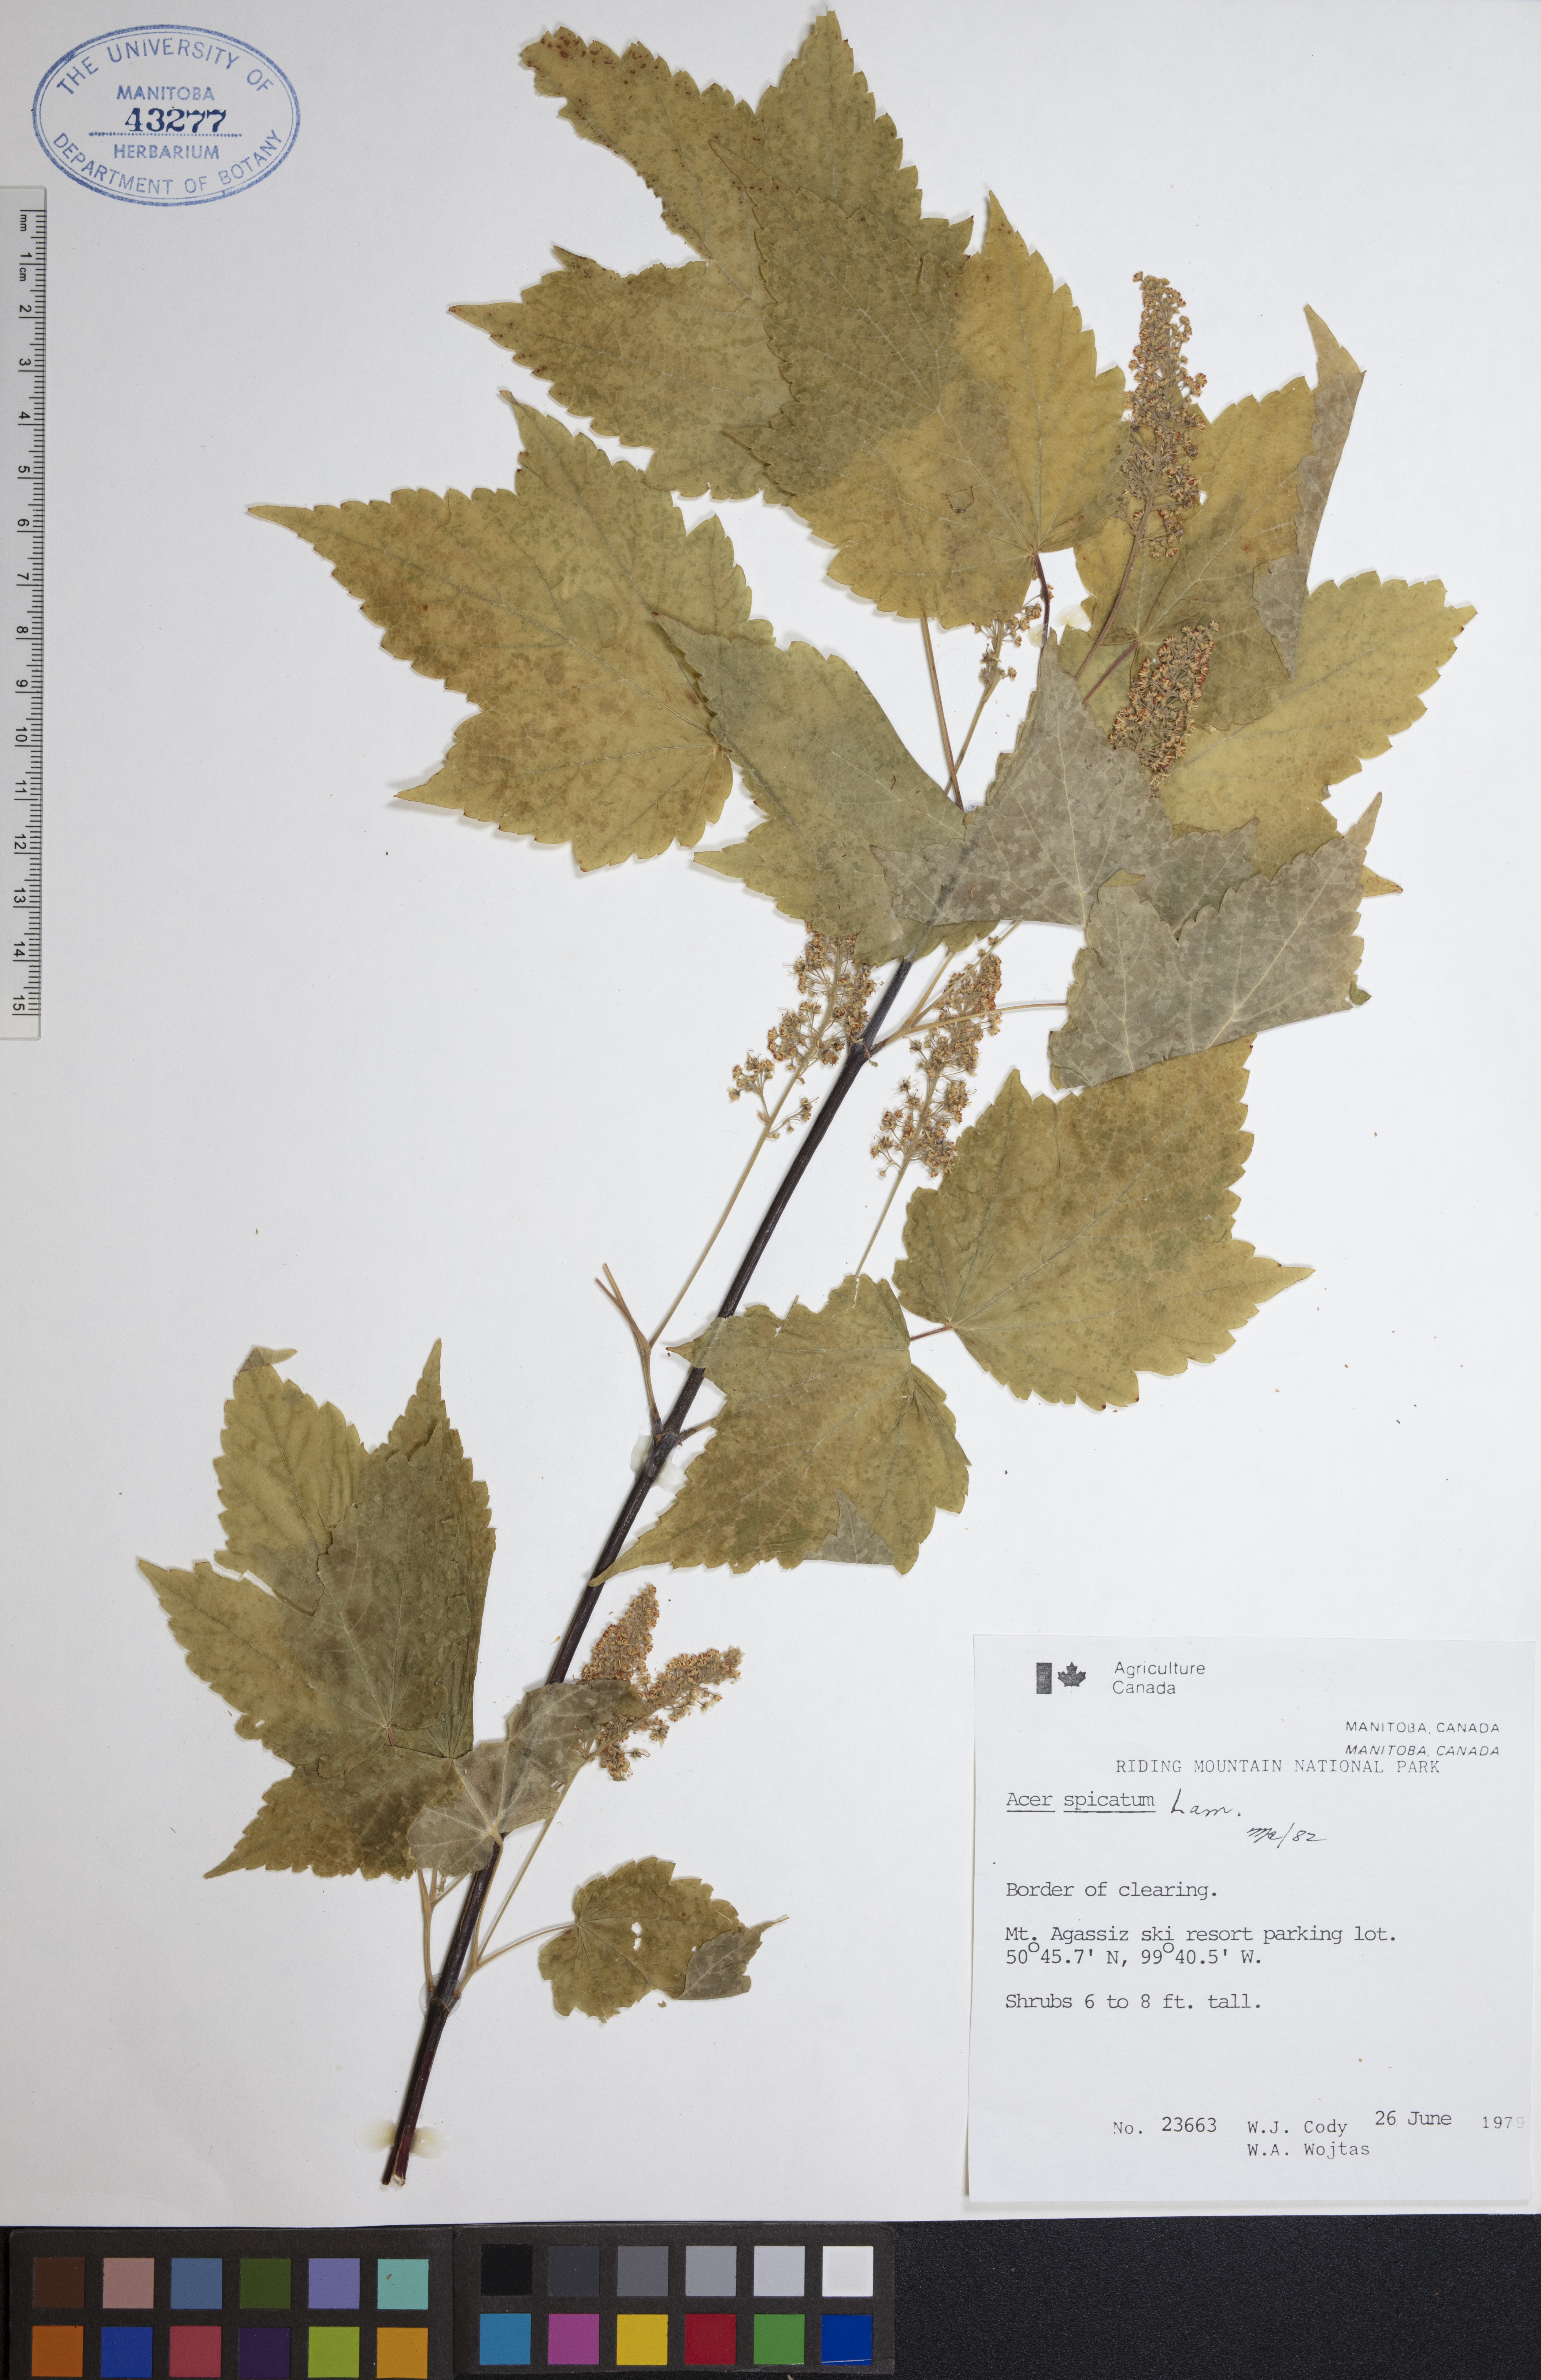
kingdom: Plantae
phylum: Tracheophyta
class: Magnoliopsida
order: Sapindales
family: Sapindaceae
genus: Acer
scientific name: Acer spicatum
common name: Mountain maple
